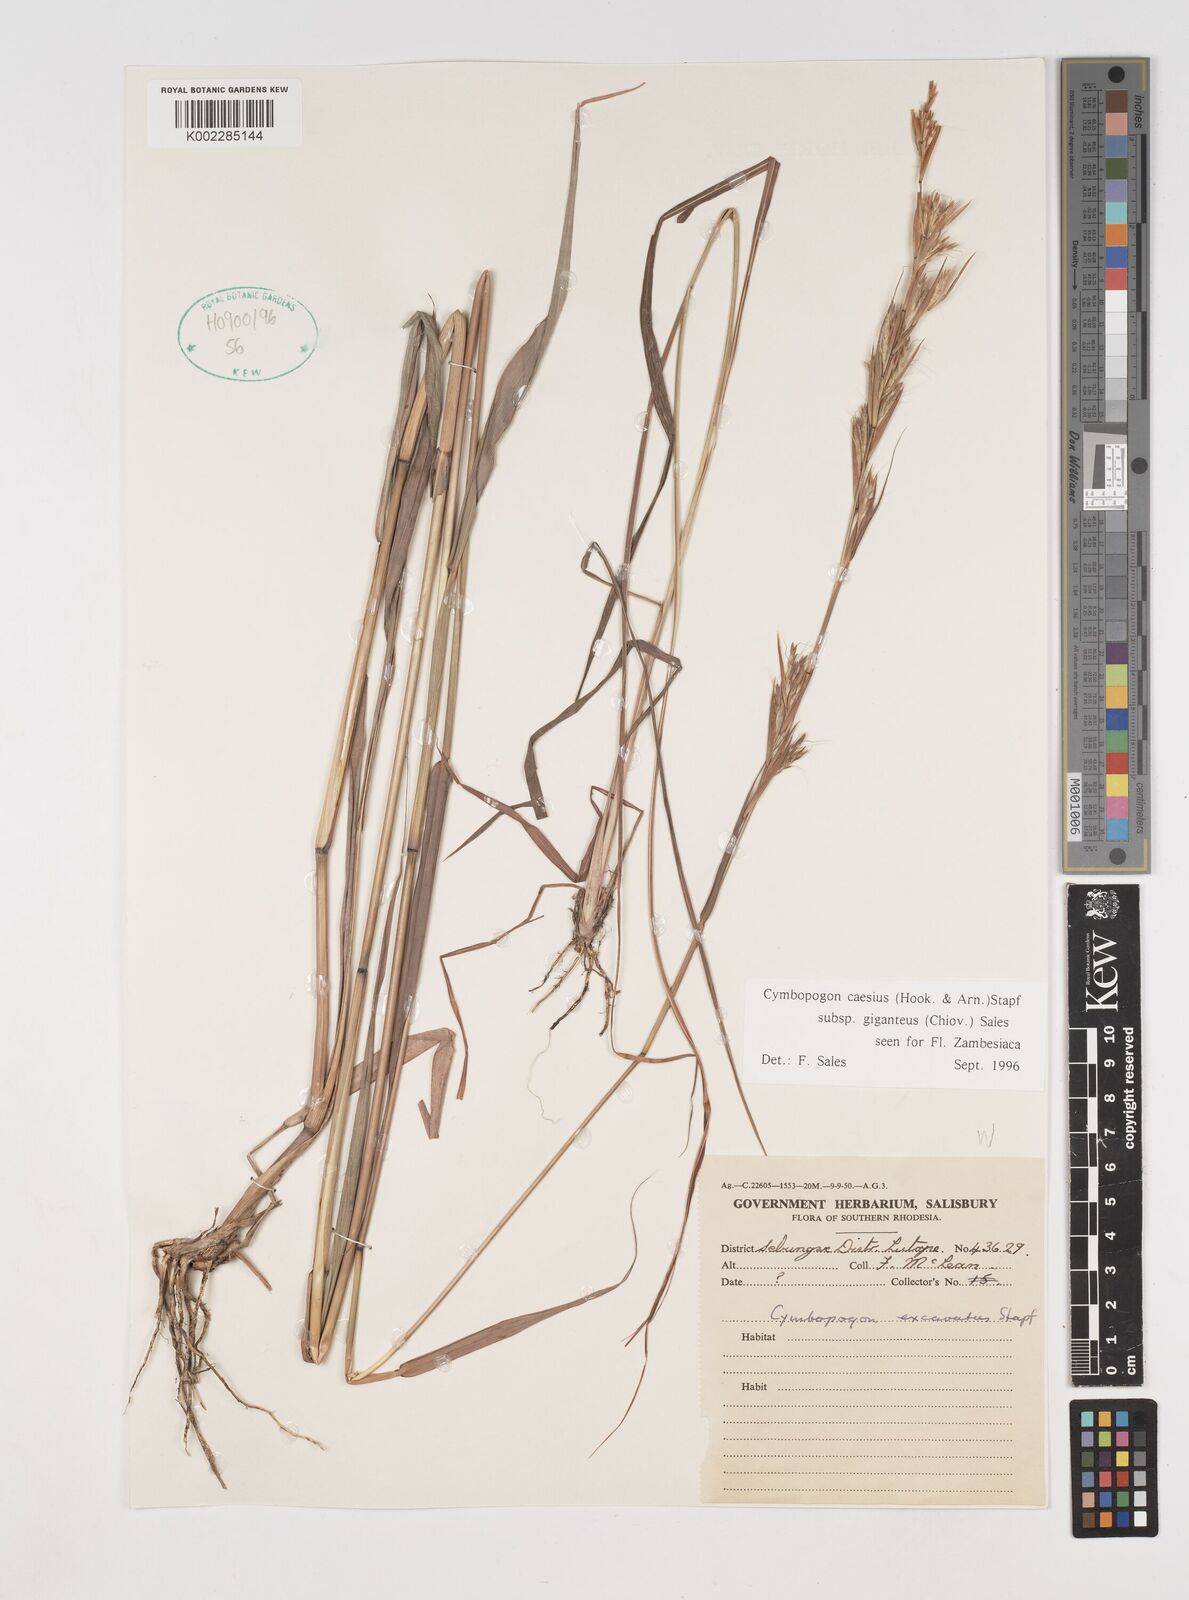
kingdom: Plantae
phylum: Tracheophyta
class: Liliopsida
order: Poales
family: Poaceae
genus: Cymbopogon
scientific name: Cymbopogon giganteus
